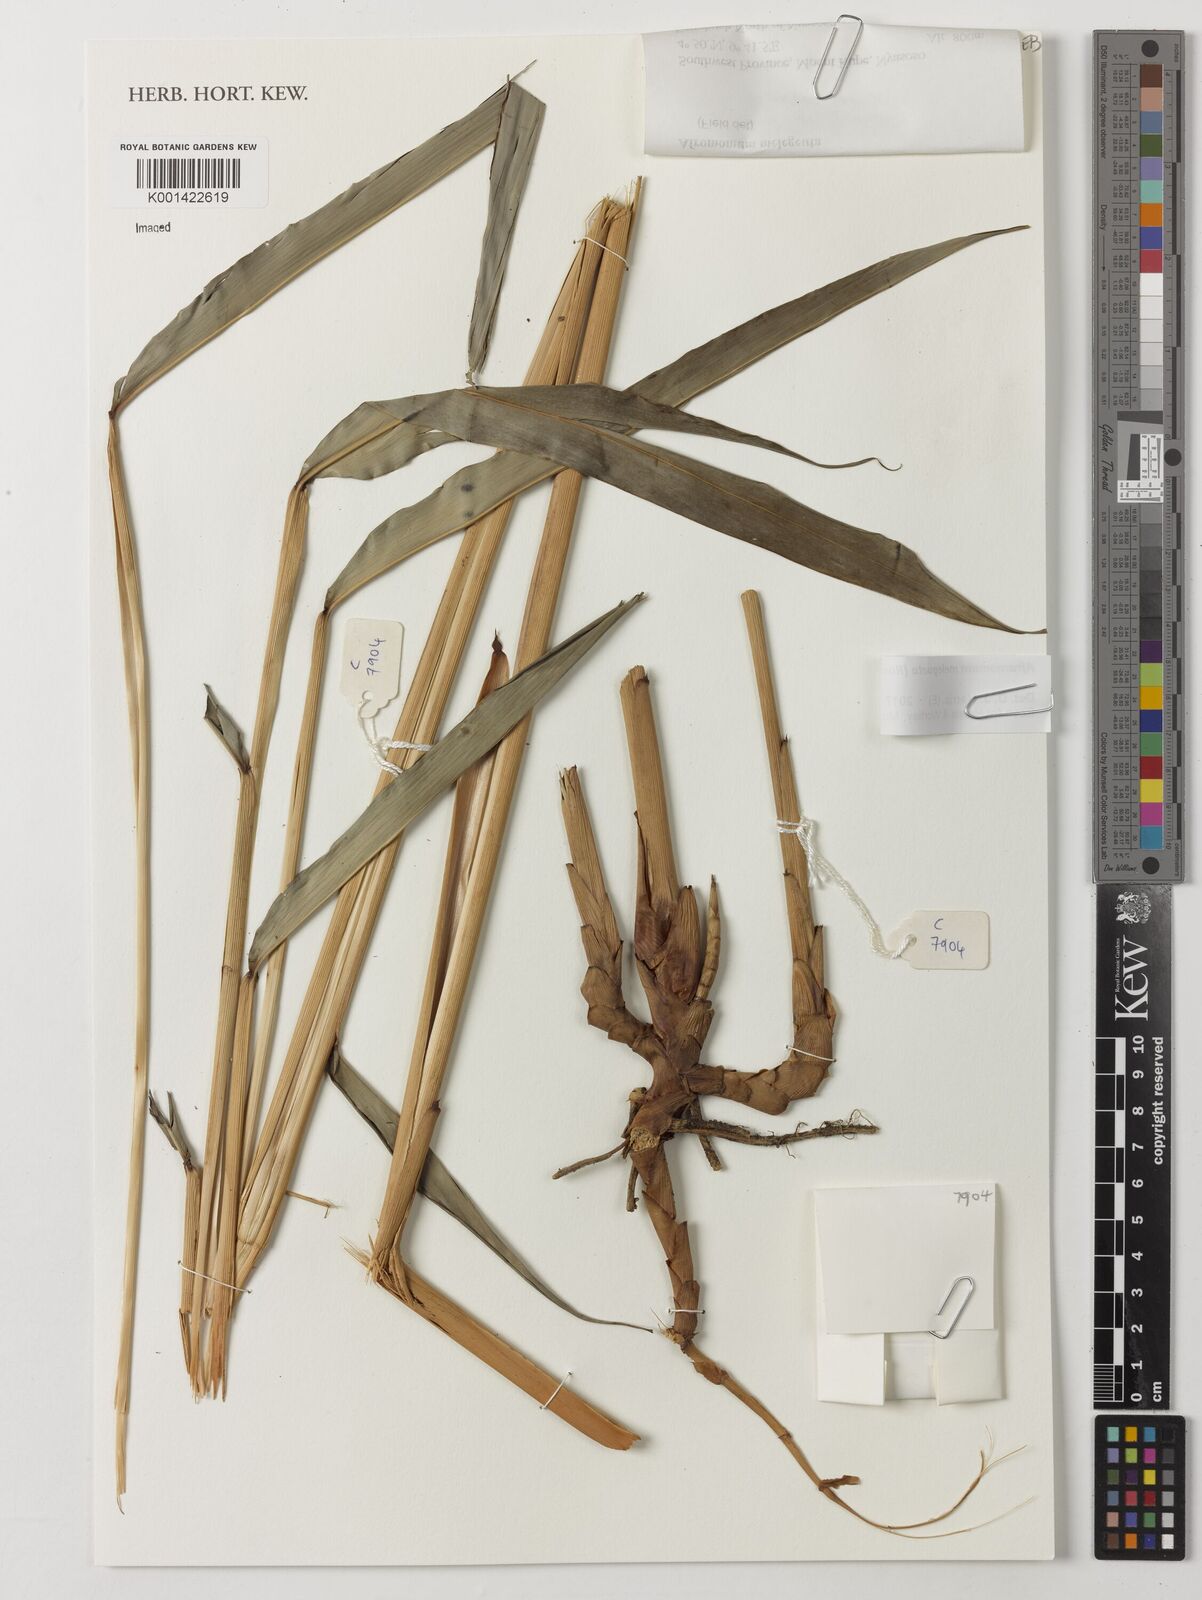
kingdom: Plantae
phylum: Tracheophyta
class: Liliopsida
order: Zingiberales
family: Zingiberaceae
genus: Aframomum
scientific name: Aframomum melegueta
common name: Grains of paradise
